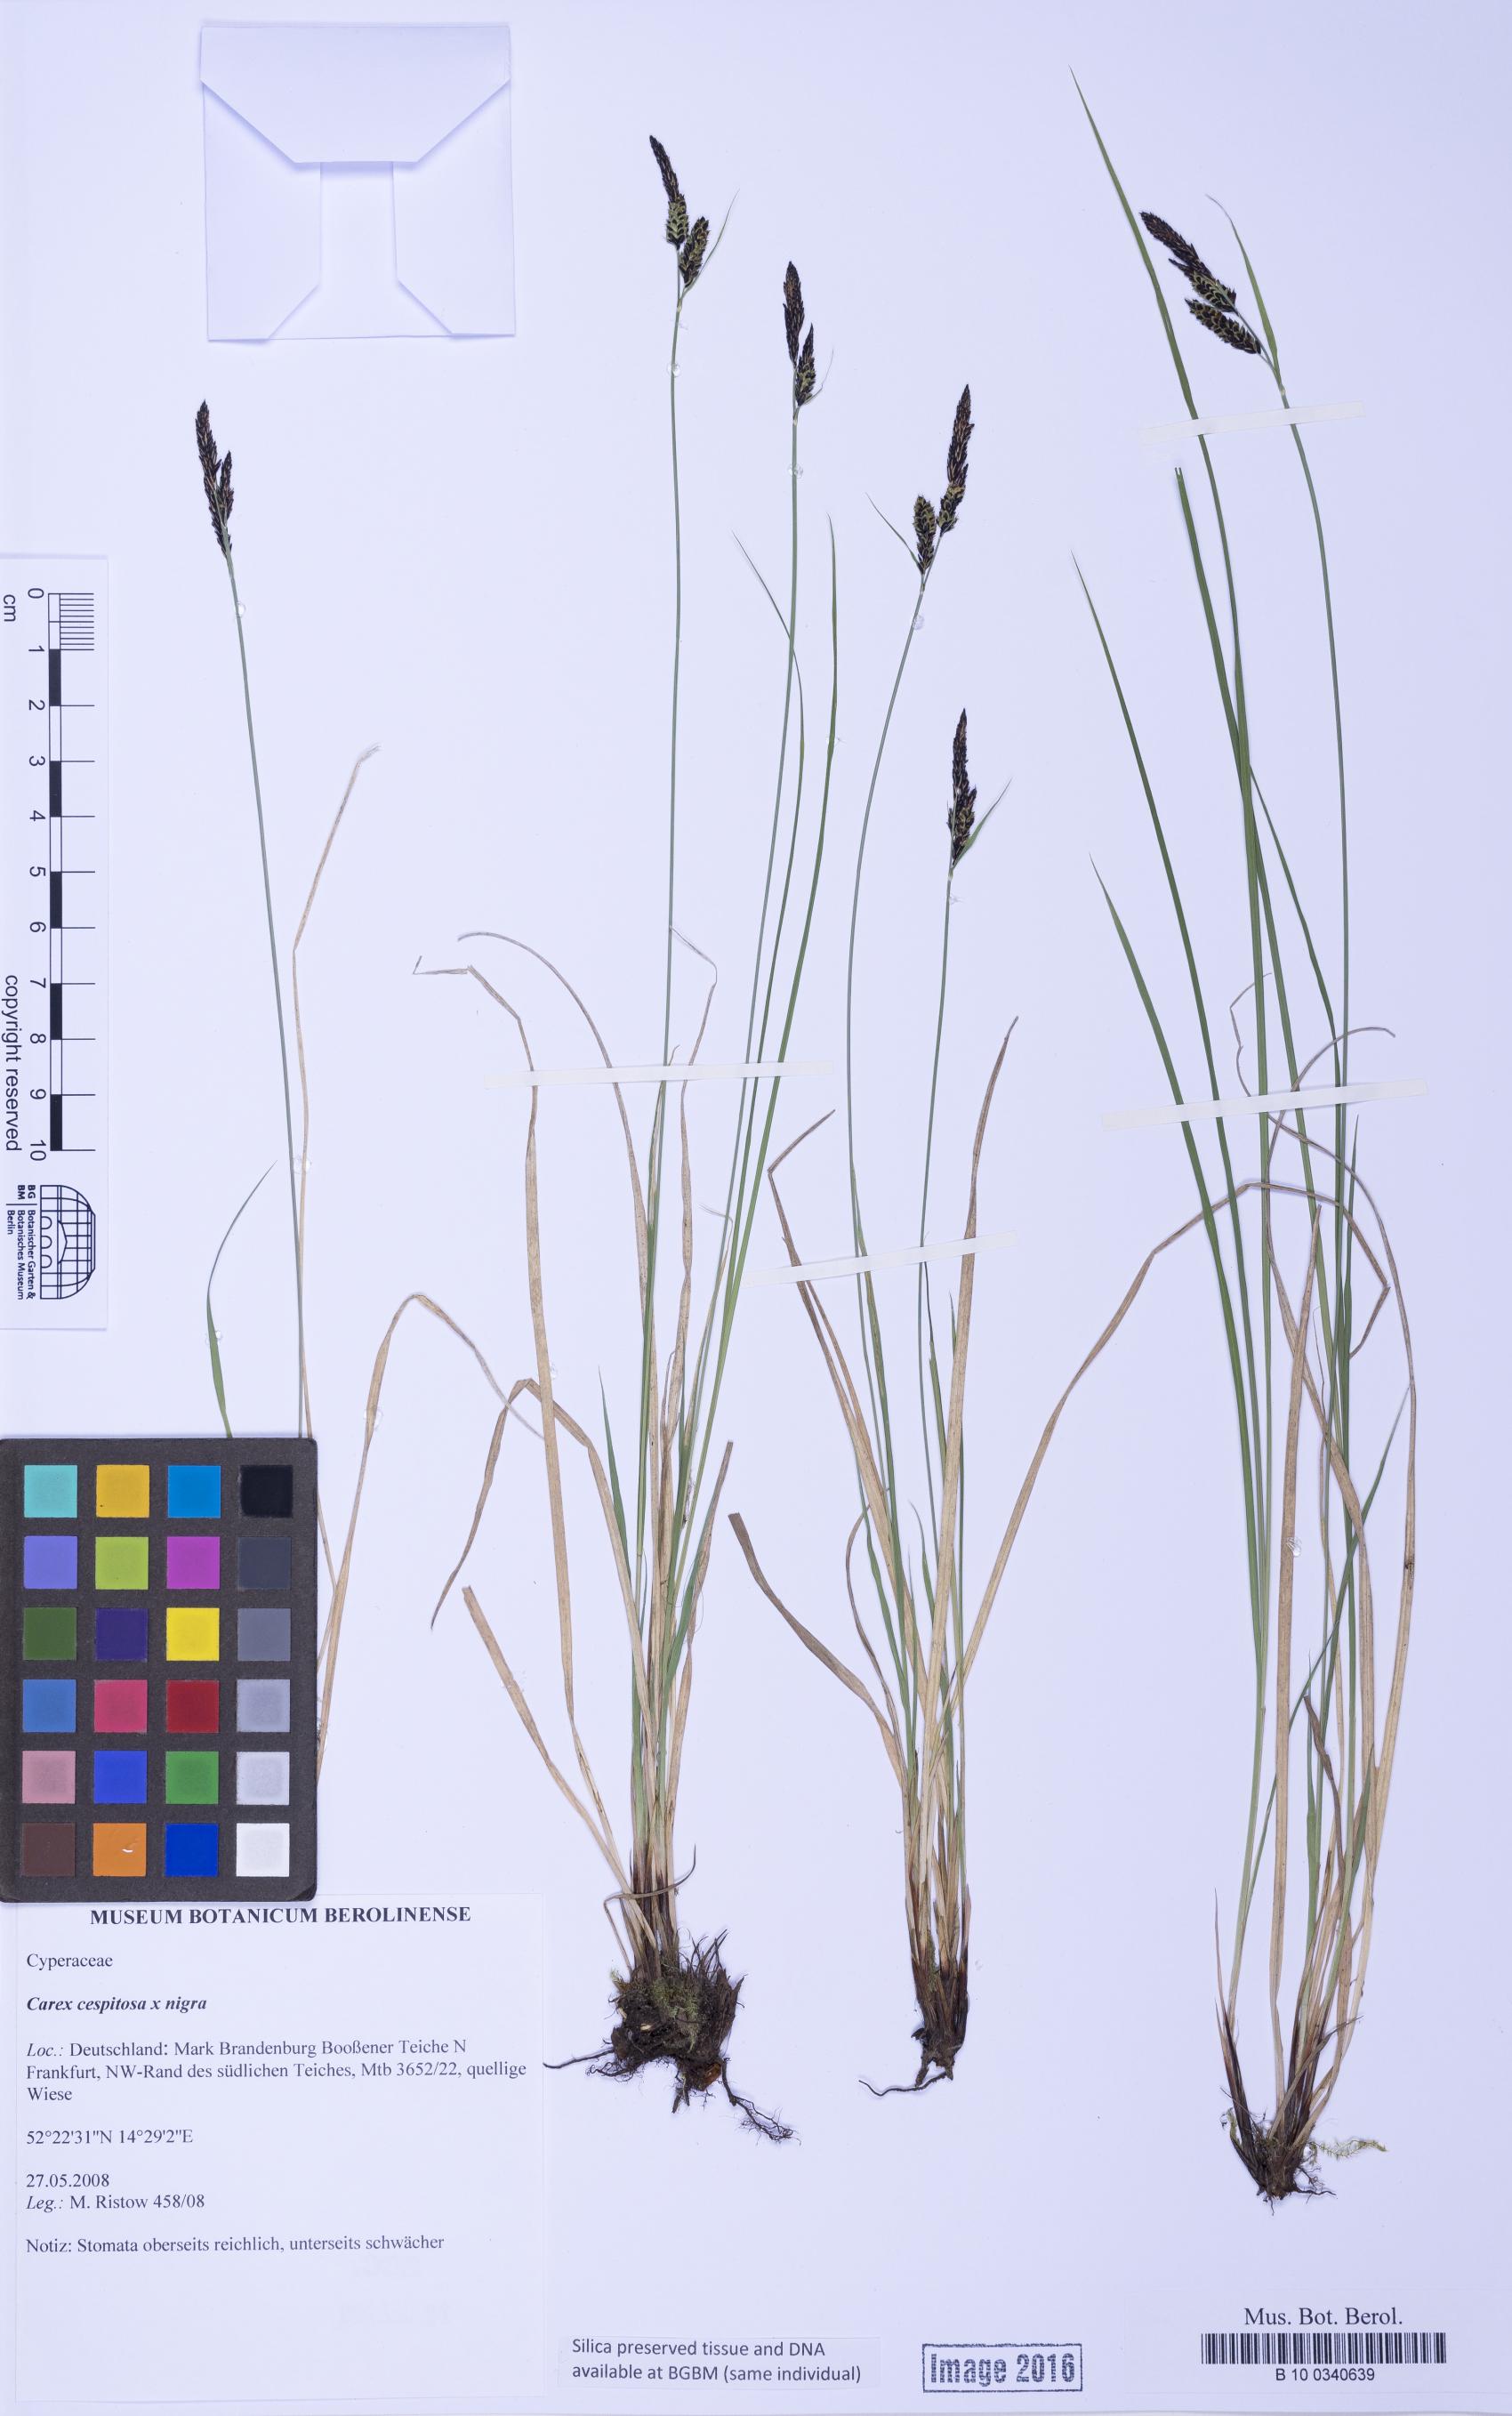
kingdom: Plantae
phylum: Tracheophyta
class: Liliopsida
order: Poales
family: Cyperaceae
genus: Carex
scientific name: Carex
